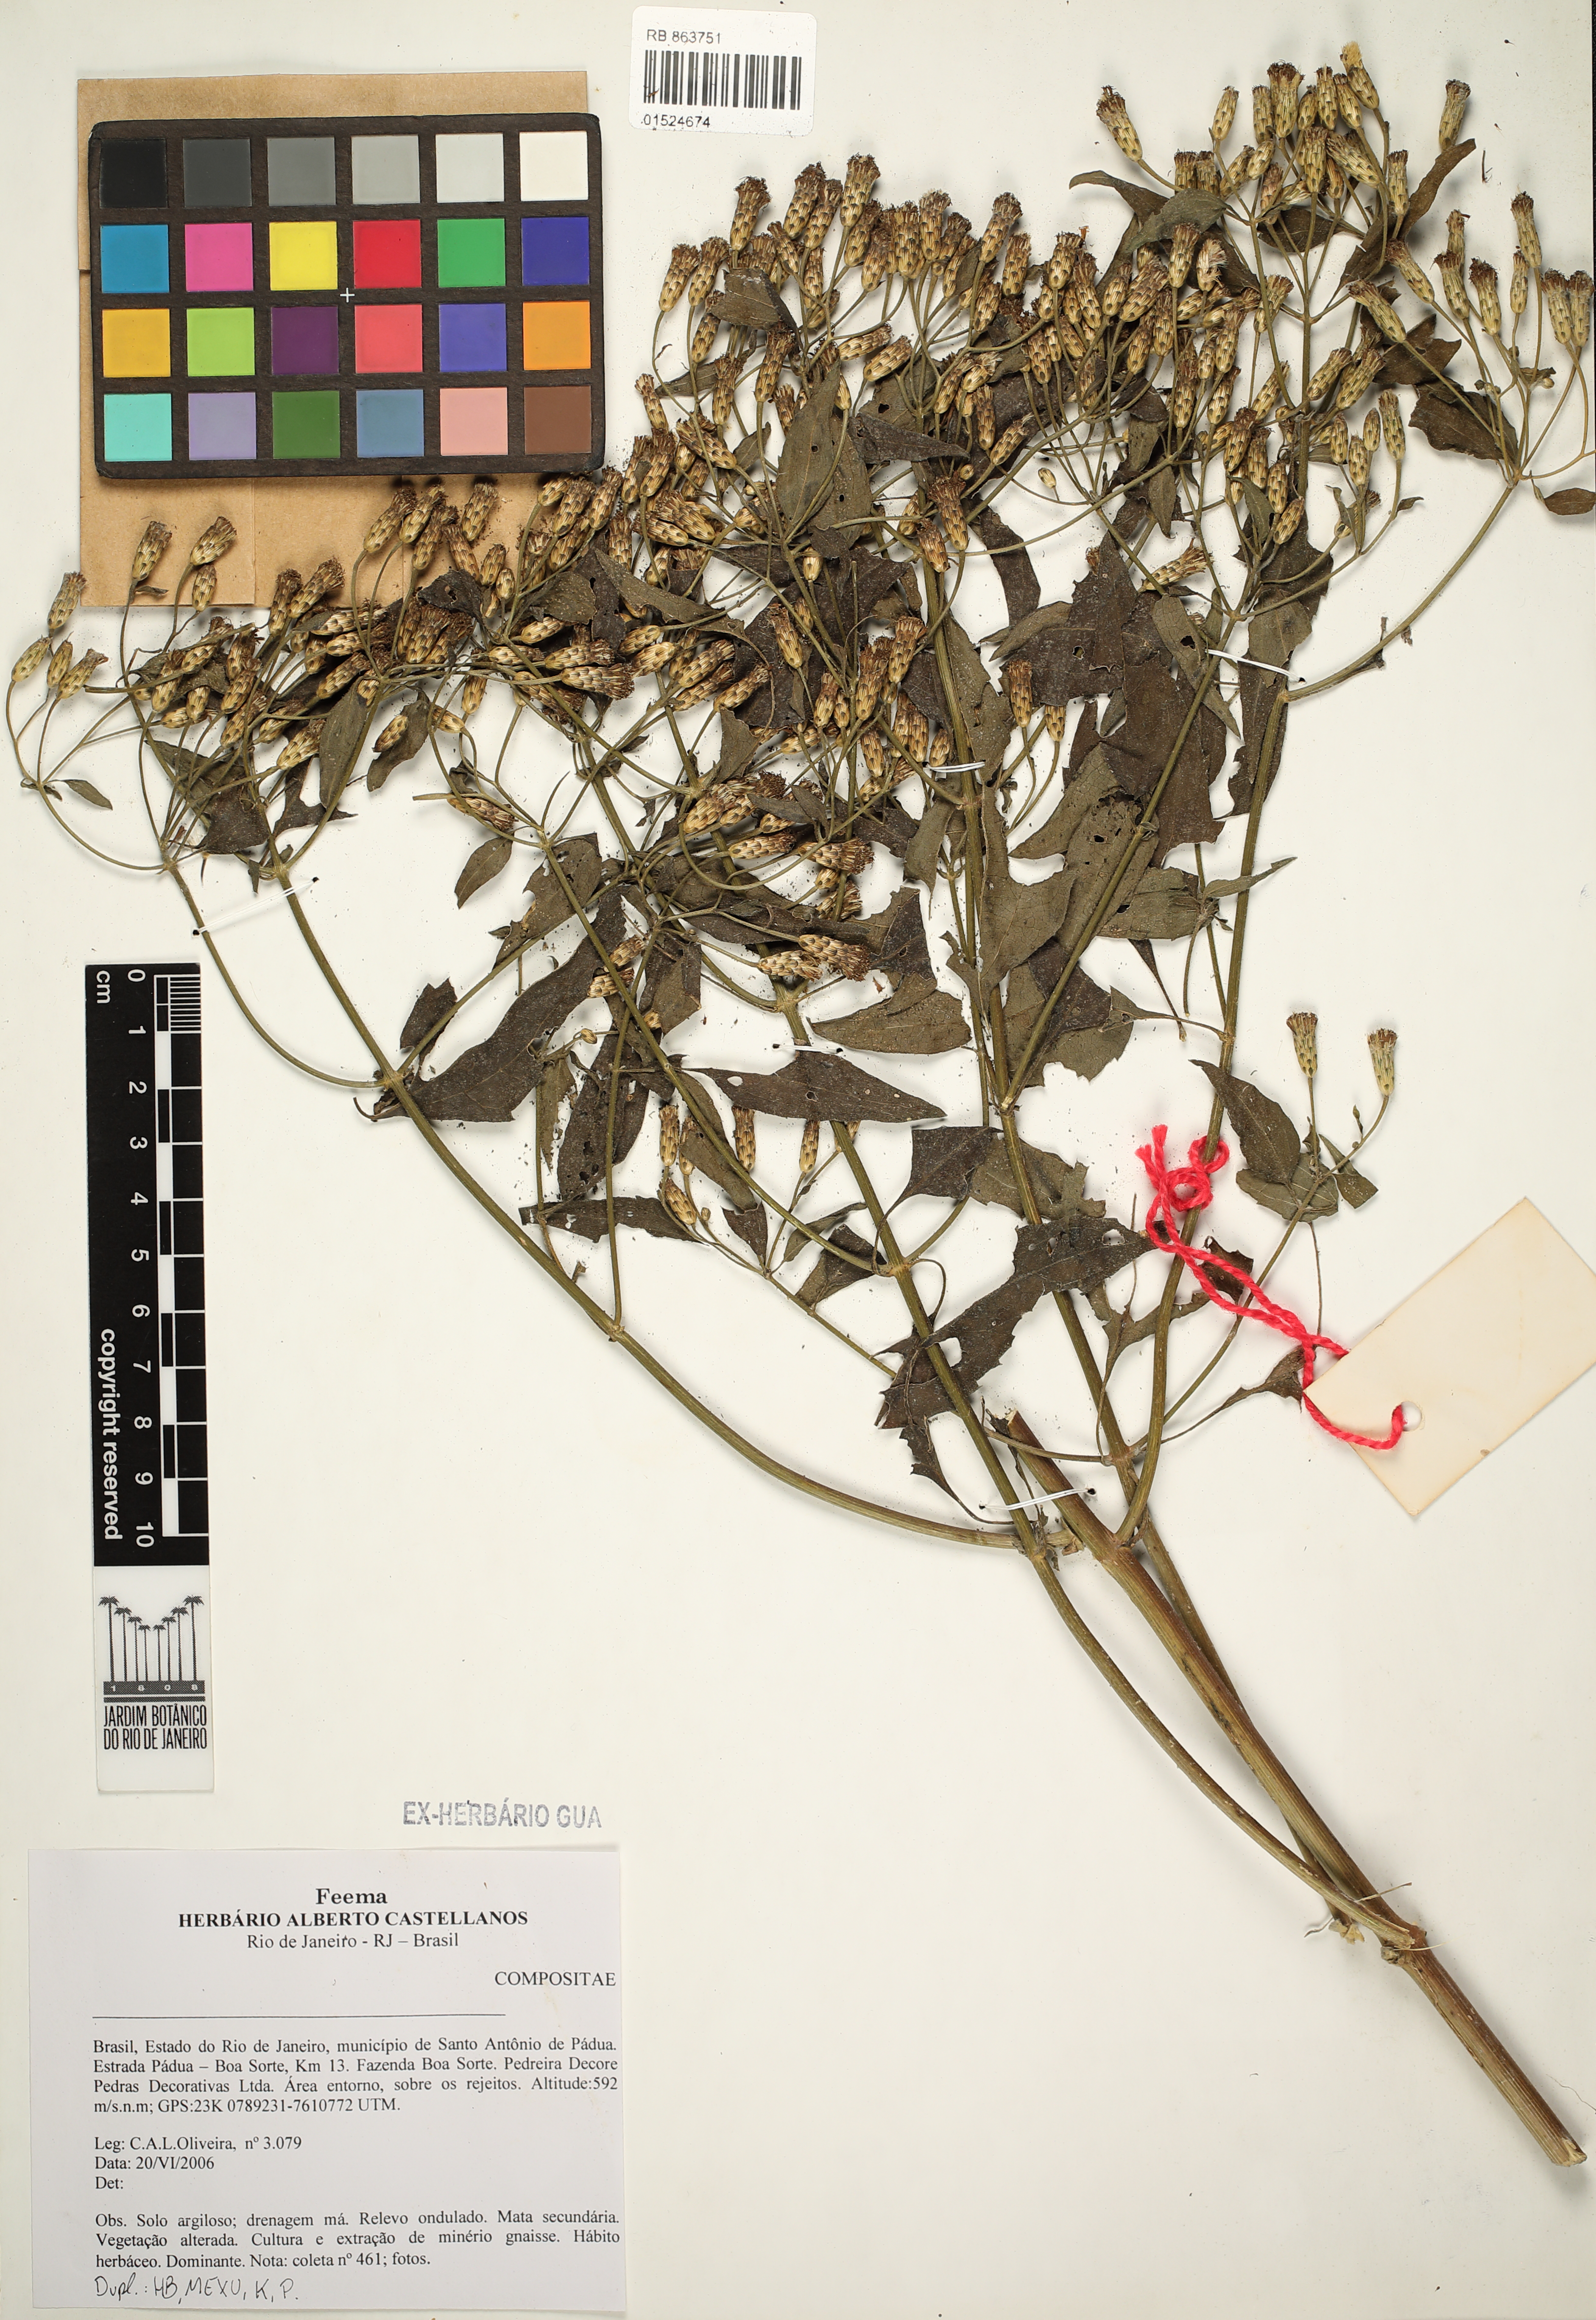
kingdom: Plantae
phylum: Tracheophyta
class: Magnoliopsida
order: Asterales
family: Asteraceae
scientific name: Asteraceae
